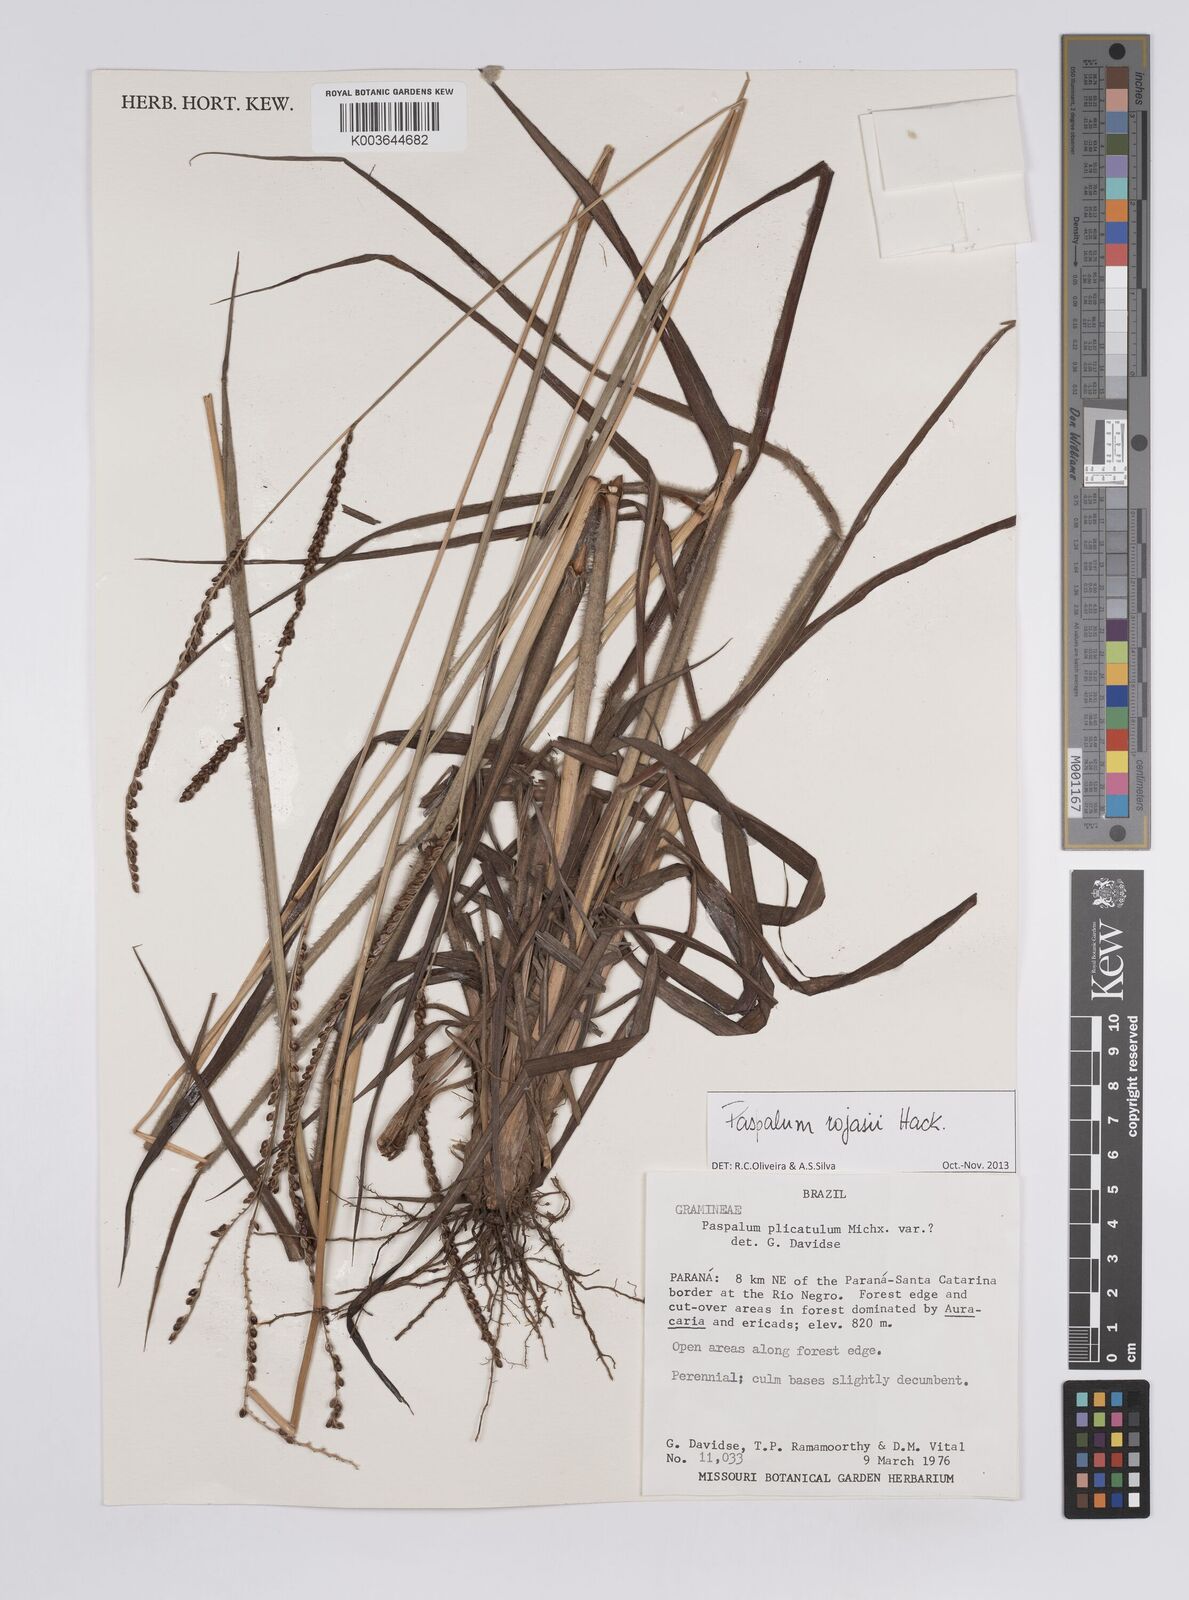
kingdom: Plantae
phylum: Tracheophyta
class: Liliopsida
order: Poales
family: Poaceae
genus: Paspalum
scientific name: Paspalum guenoarum
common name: Wintergreen paspalum
